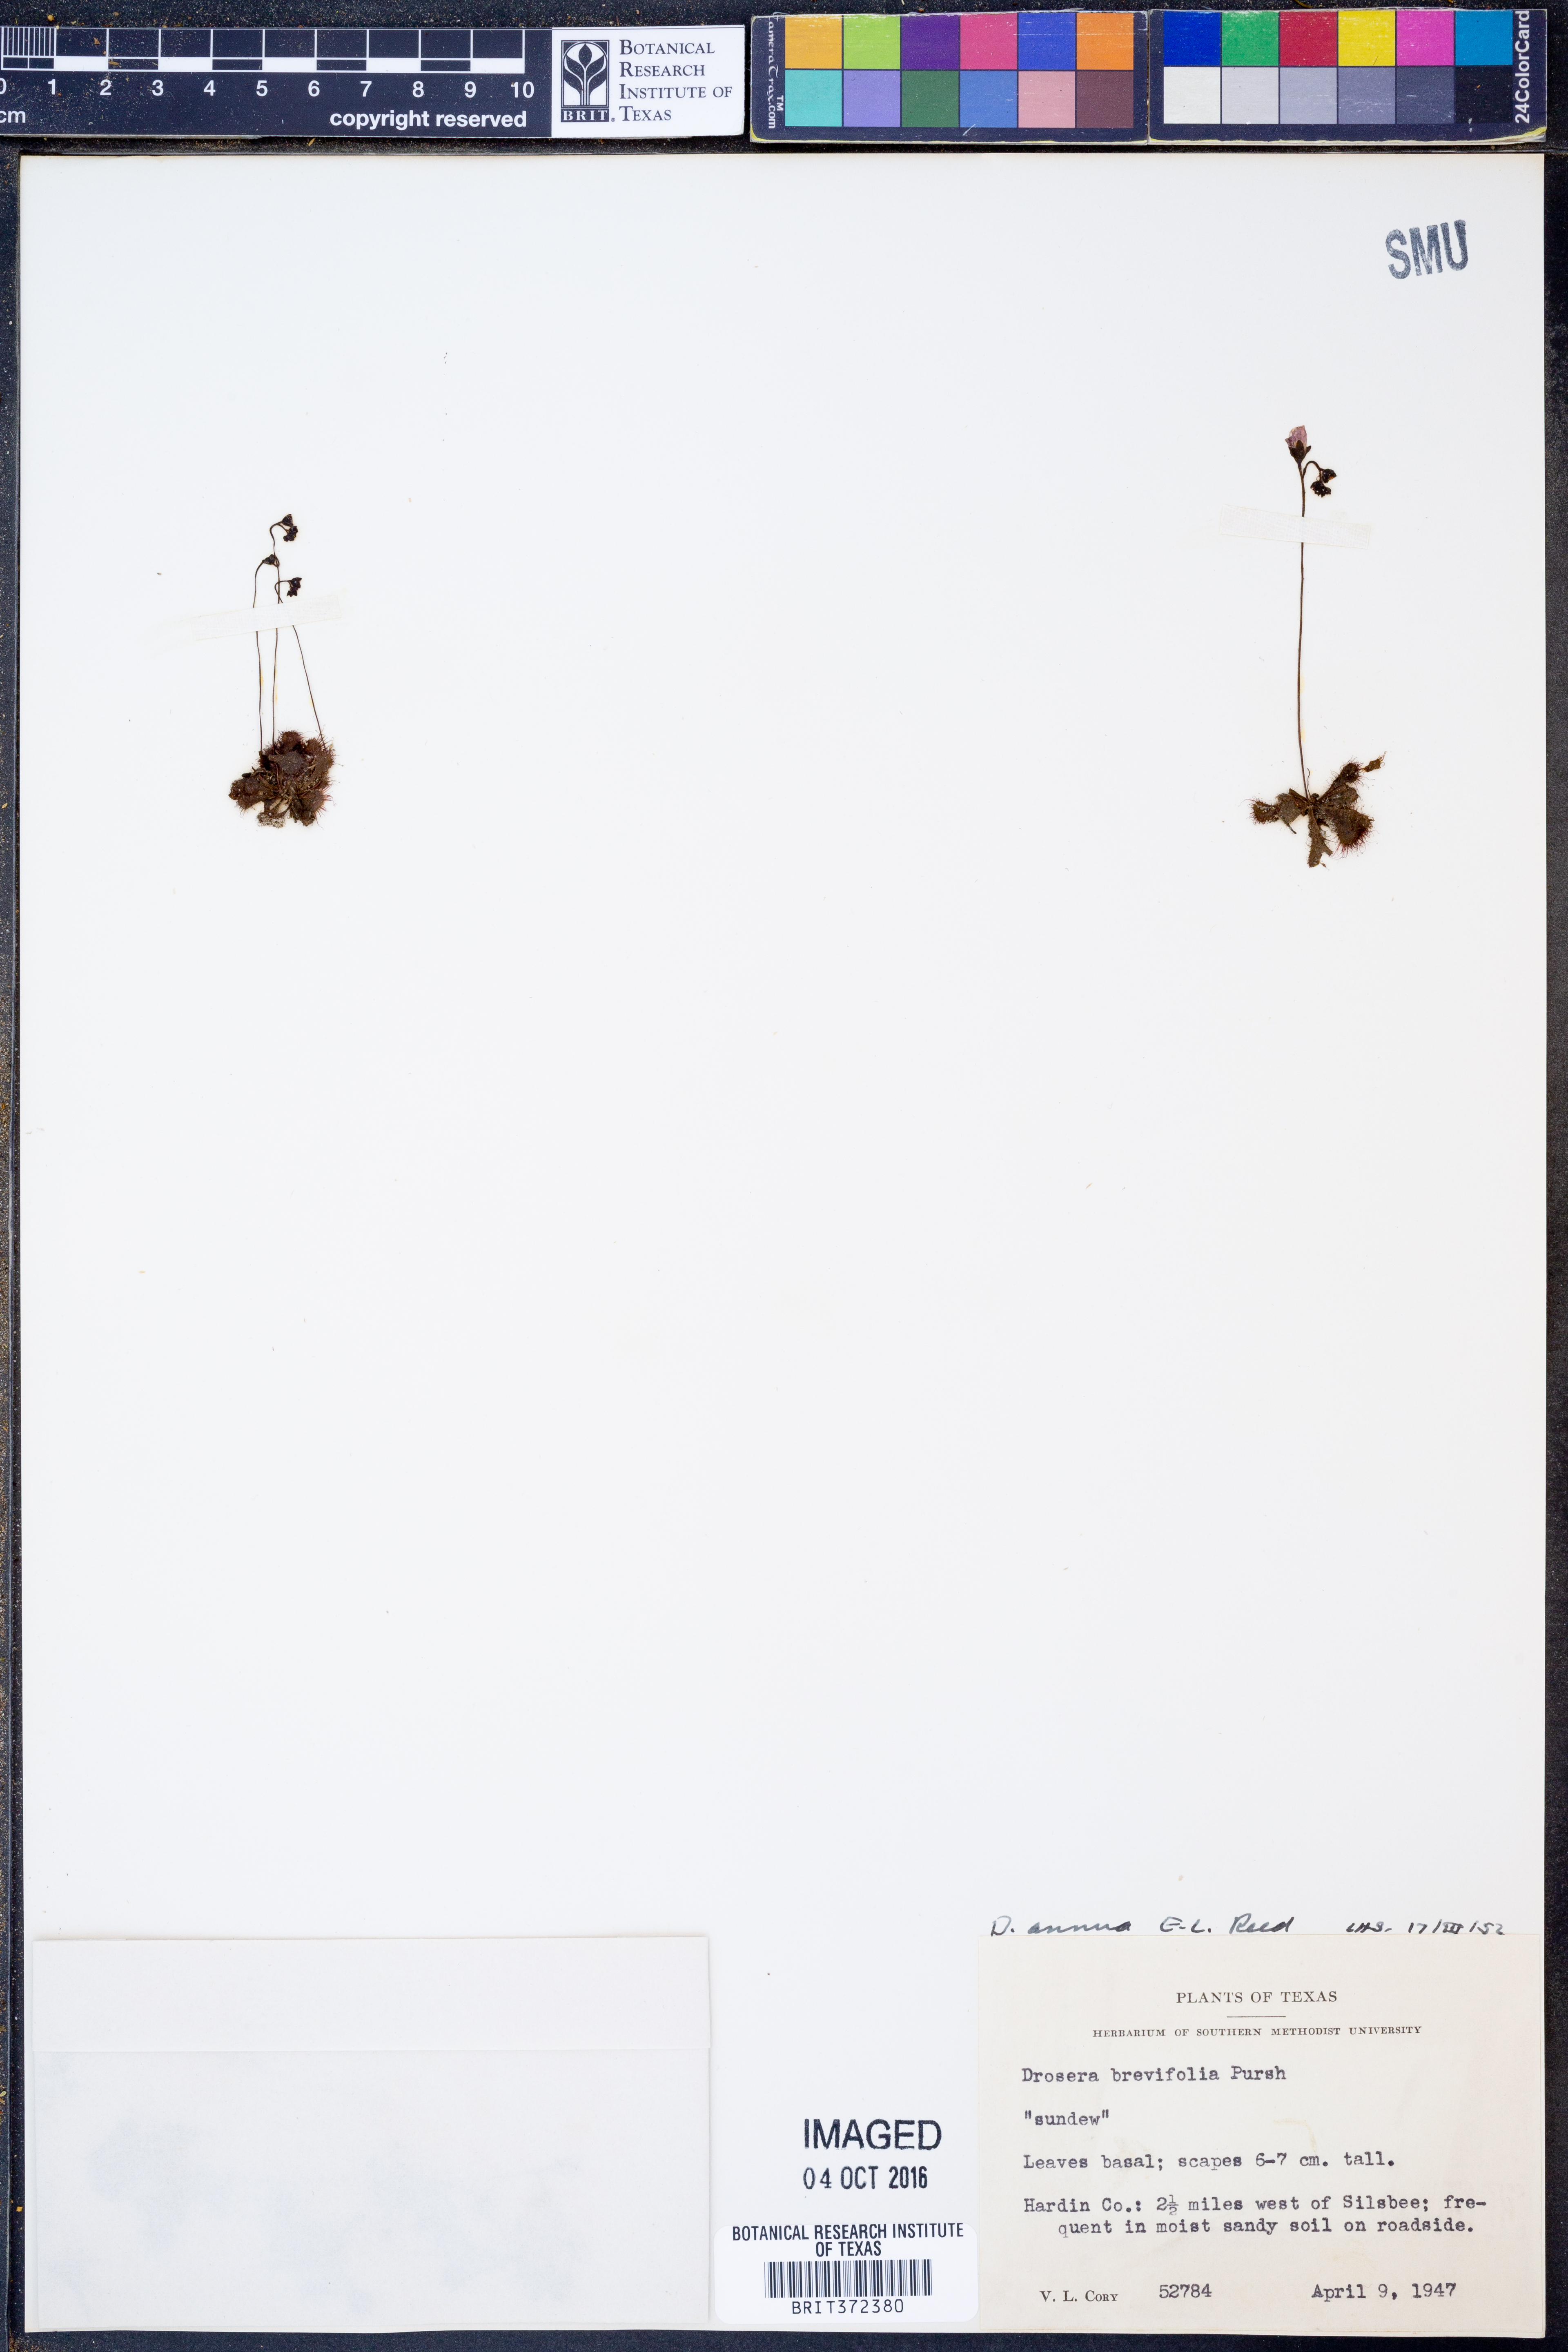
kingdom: Plantae
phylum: Tracheophyta
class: Magnoliopsida
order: Caryophyllales
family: Droseraceae
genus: Drosera
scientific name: Drosera brevifolia
